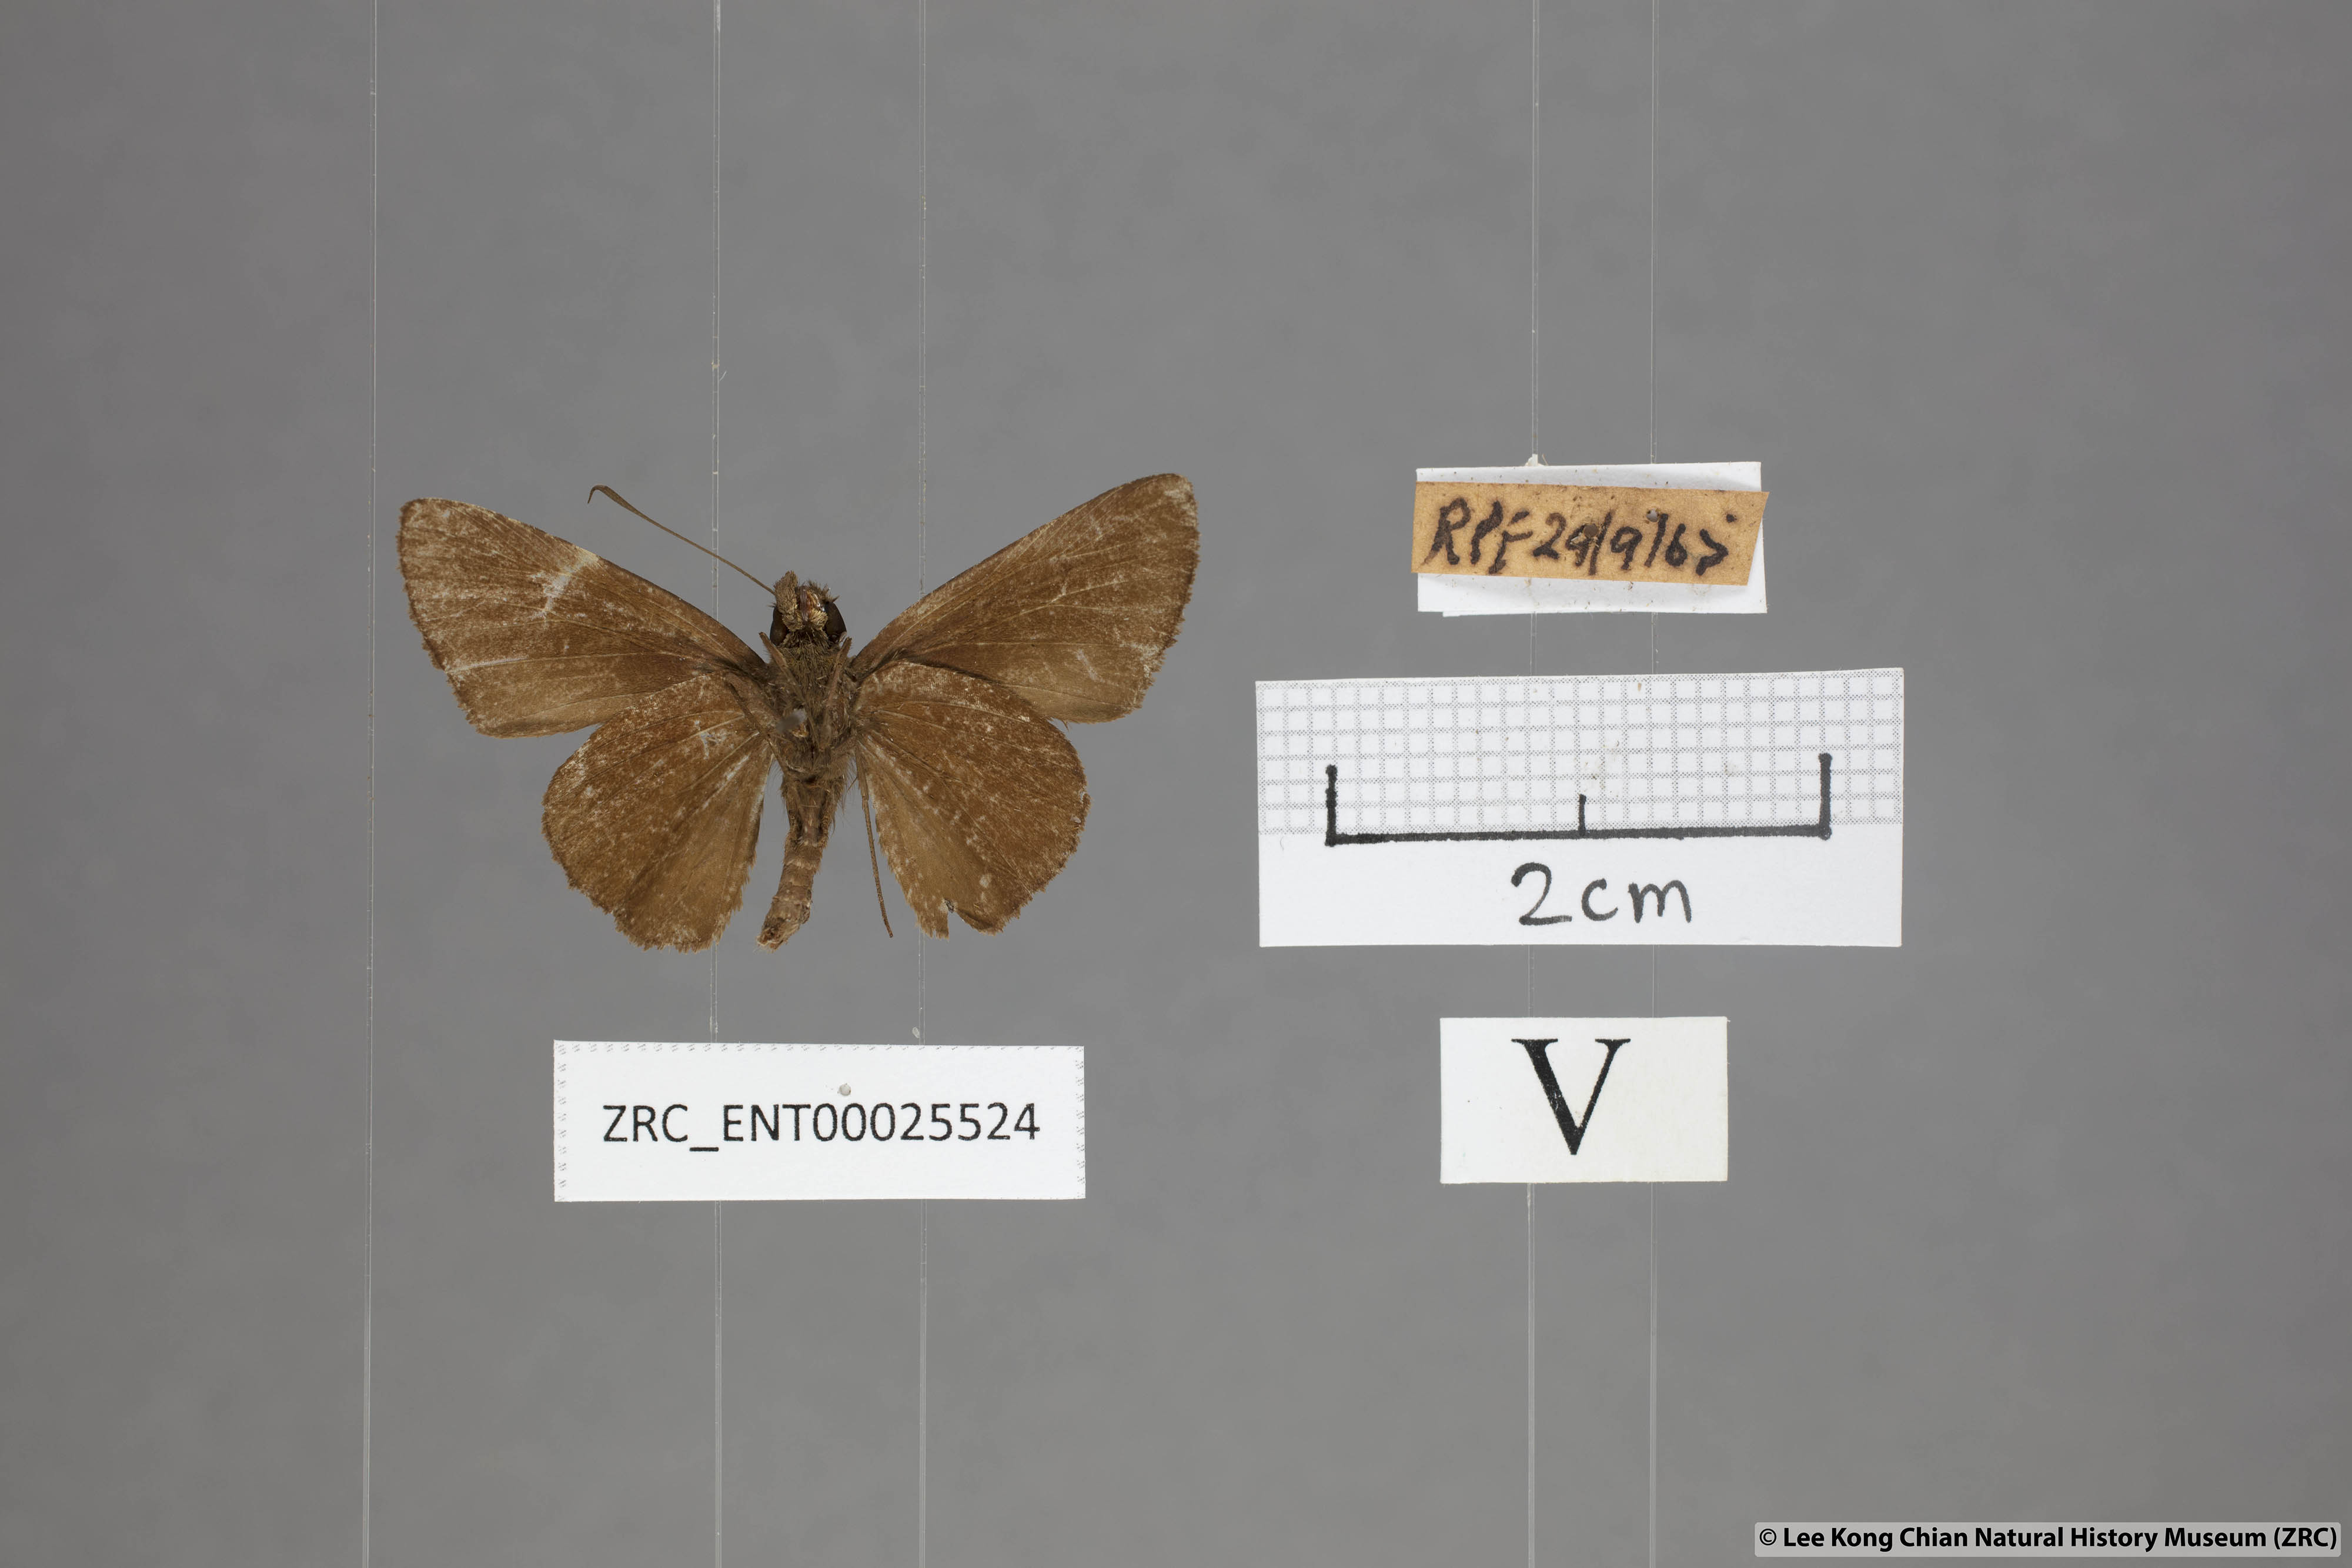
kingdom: Animalia
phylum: Arthropoda
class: Insecta
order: Lepidoptera
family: Hesperiidae
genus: Quedara
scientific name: Quedara monteithi
